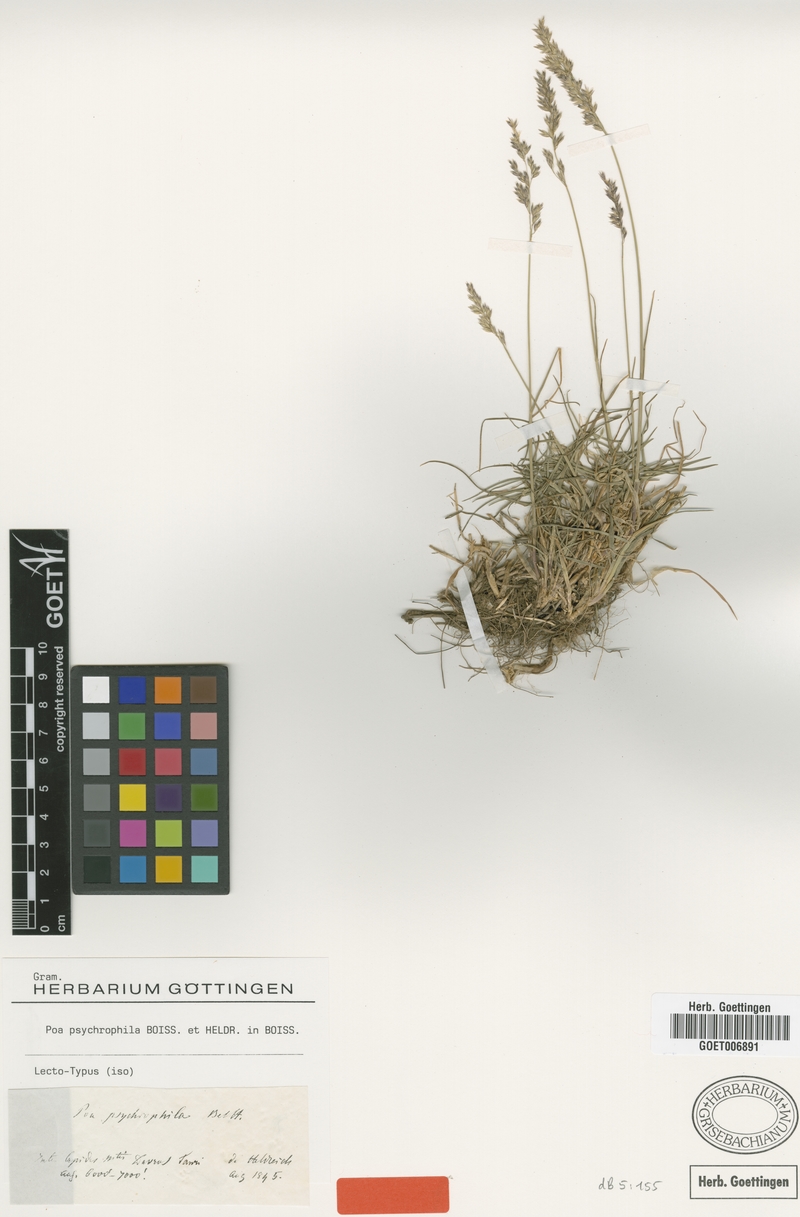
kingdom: Plantae
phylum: Tracheophyta
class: Liliopsida
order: Poales
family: Poaceae
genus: Poa
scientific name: Poa cenisia
